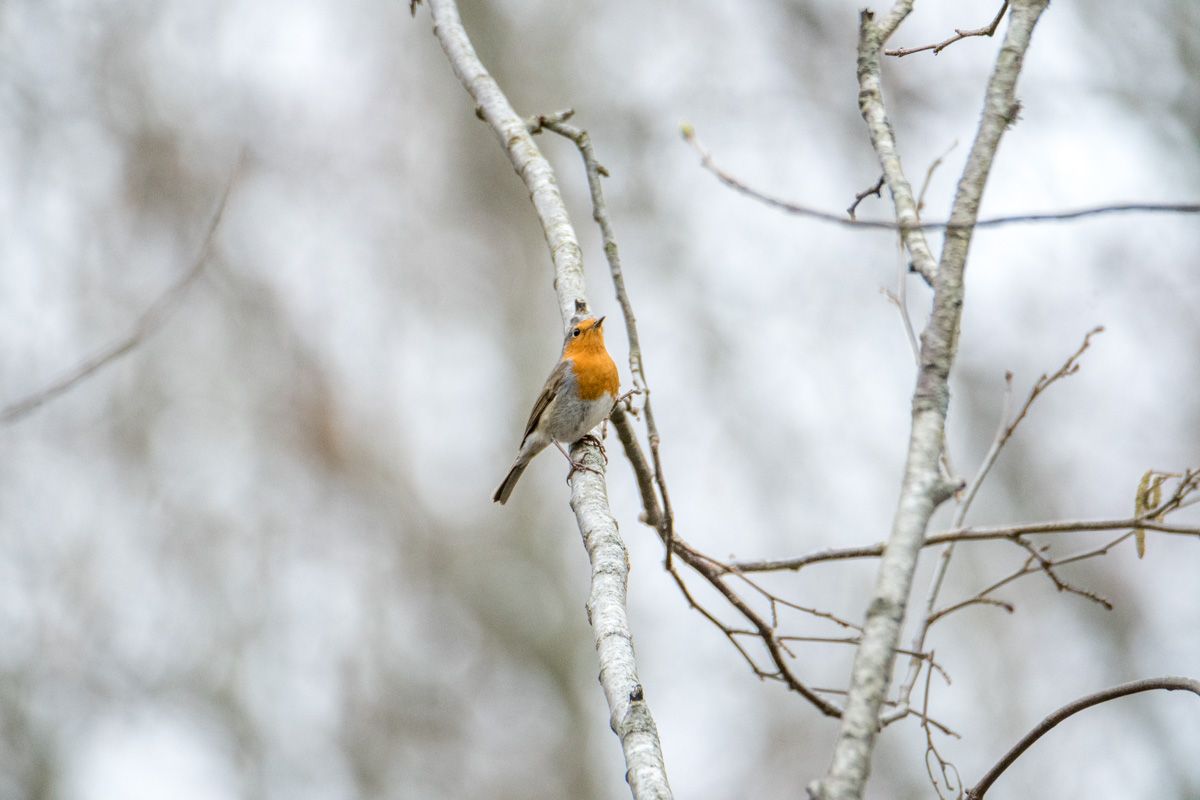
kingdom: Animalia
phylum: Chordata
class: Aves
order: Passeriformes
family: Muscicapidae
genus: Erithacus
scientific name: Erithacus rubecula
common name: European robin
